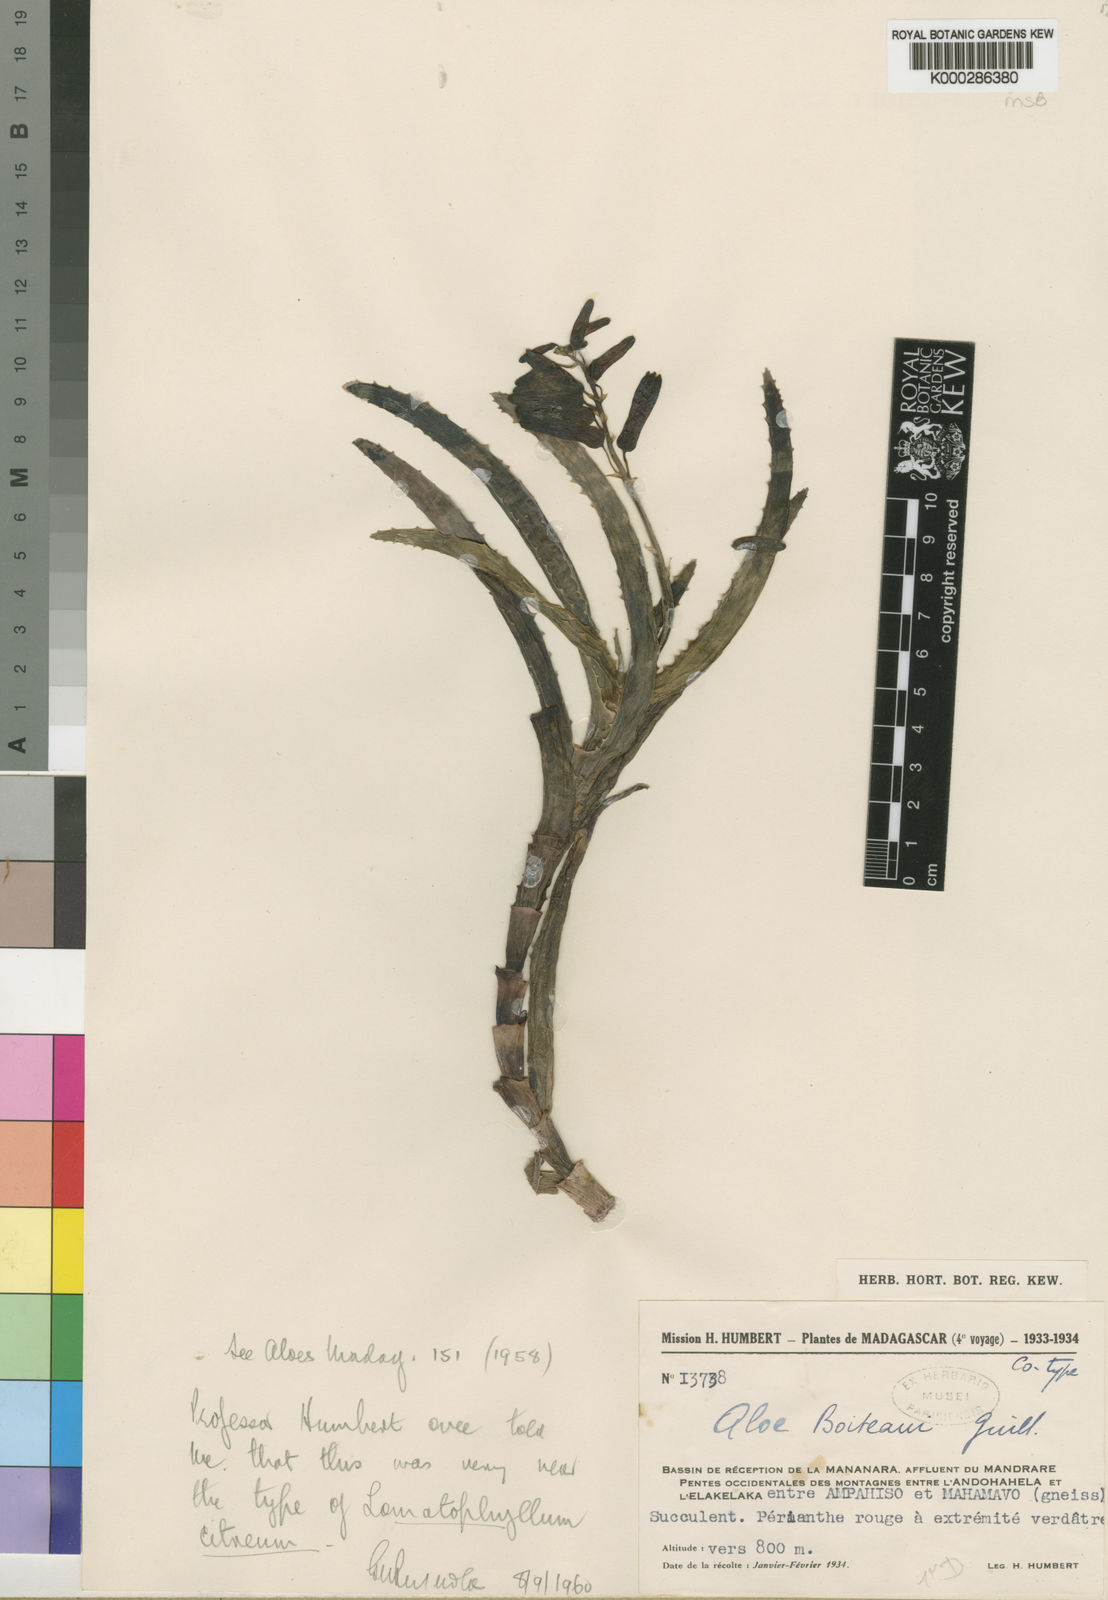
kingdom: Plantae
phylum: Tracheophyta
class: Liliopsida
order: Asparagales
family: Asphodelaceae
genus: Aloe
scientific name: Aloe lucile-allorgeae
